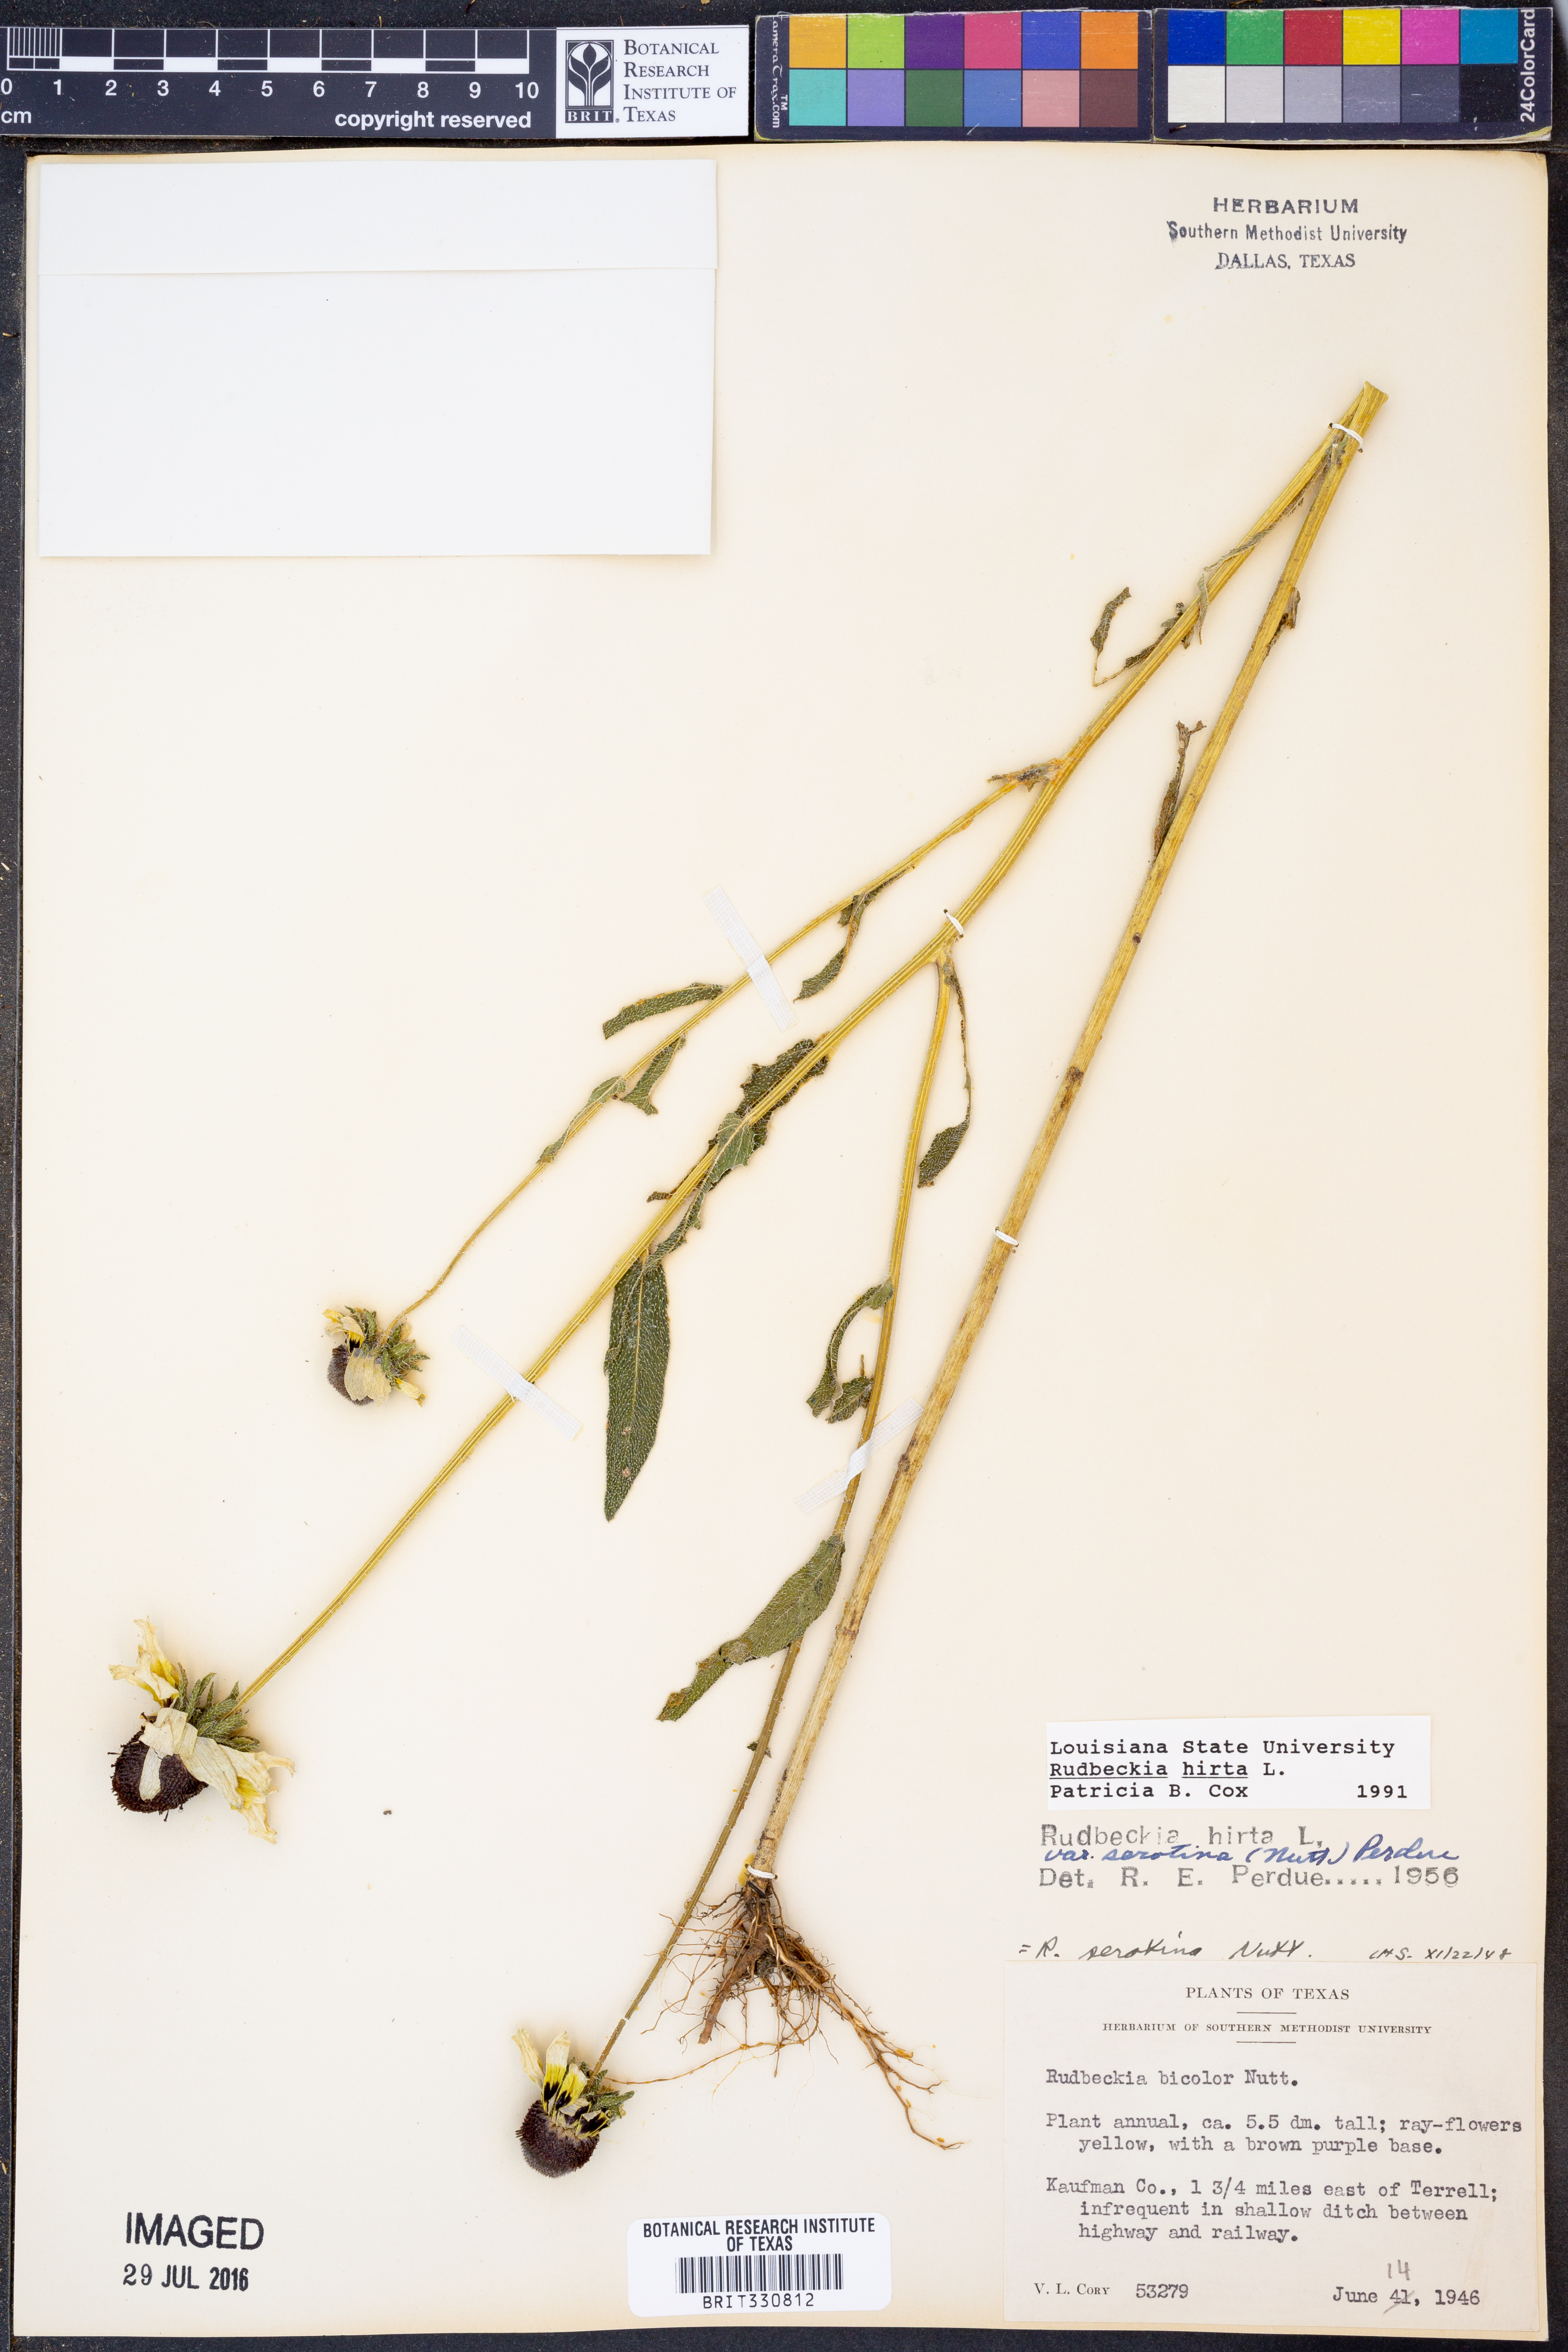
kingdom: Plantae
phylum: Tracheophyta
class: Magnoliopsida
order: Asterales
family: Asteraceae
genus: Rudbeckia
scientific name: Rudbeckia hirta
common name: Black-eyed-susan
